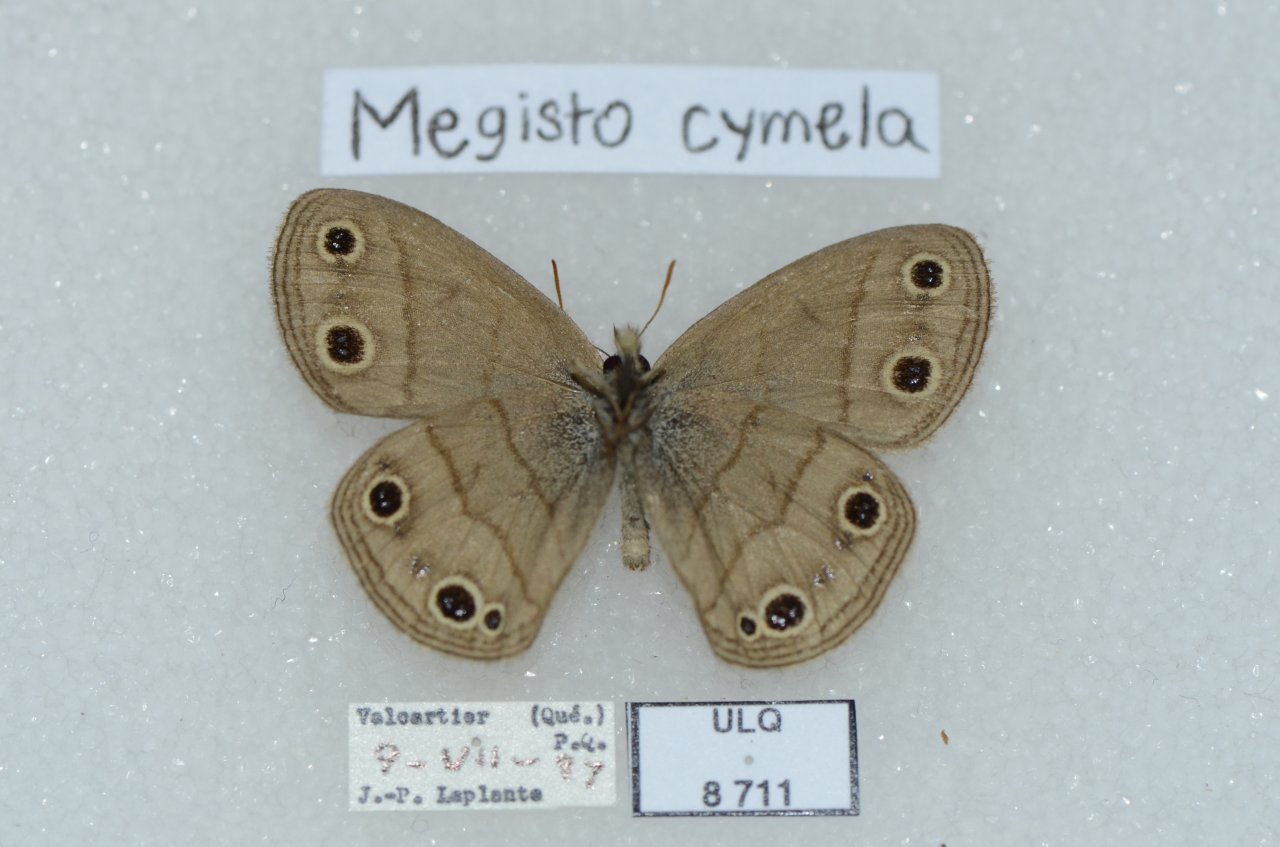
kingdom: Animalia
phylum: Arthropoda
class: Insecta
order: Lepidoptera
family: Nymphalidae
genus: Euptychia
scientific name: Euptychia cymela
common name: Little Wood Satyr
